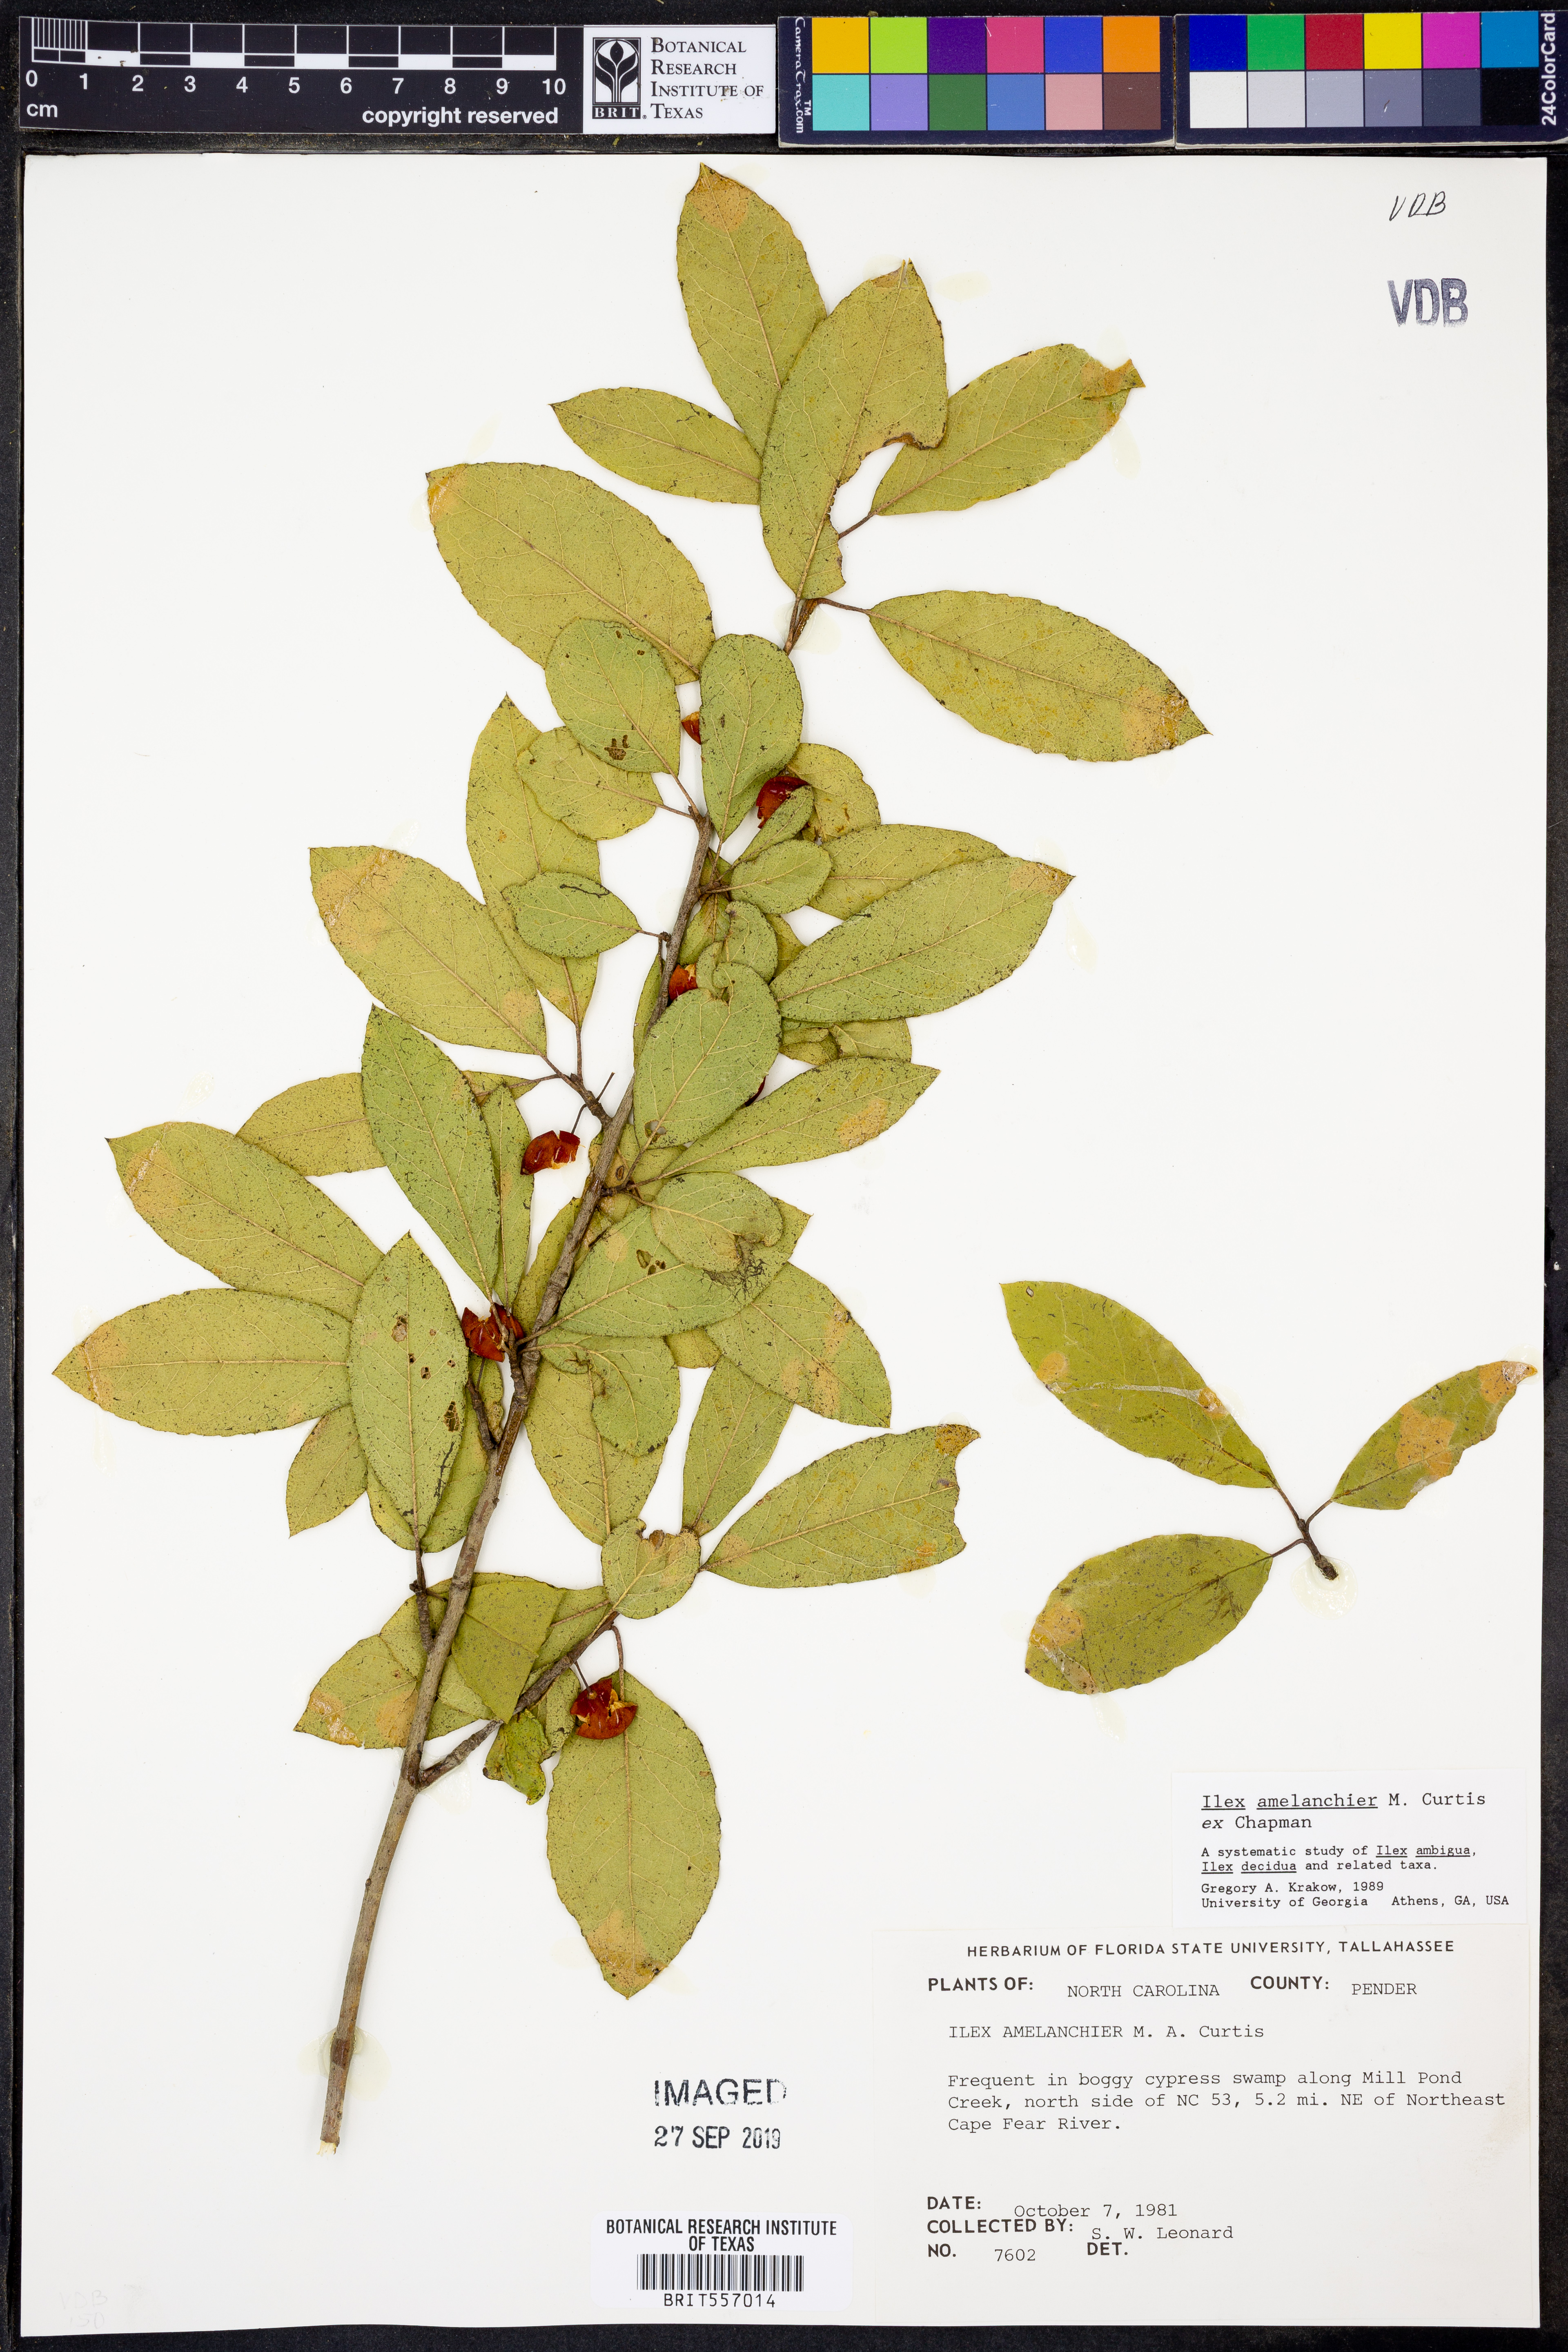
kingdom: Plantae
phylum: Tracheophyta
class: Magnoliopsida
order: Aquifoliales
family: Aquifoliaceae
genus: Ilex
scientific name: Ilex amelanchier
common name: Sarvis holly
